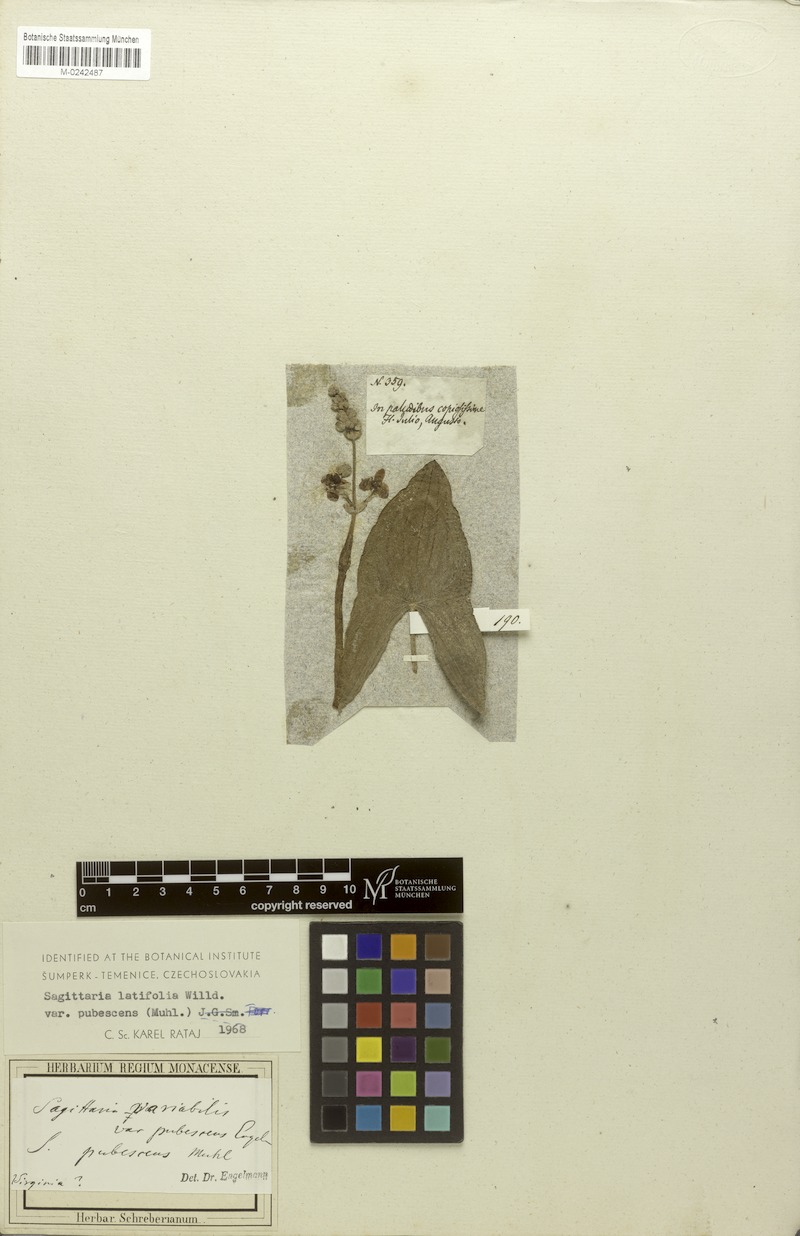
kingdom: Plantae
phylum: Tracheophyta
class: Liliopsida
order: Alismatales
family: Alismataceae
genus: Sagittaria
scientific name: Sagittaria latifolia
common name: Duck-potato
